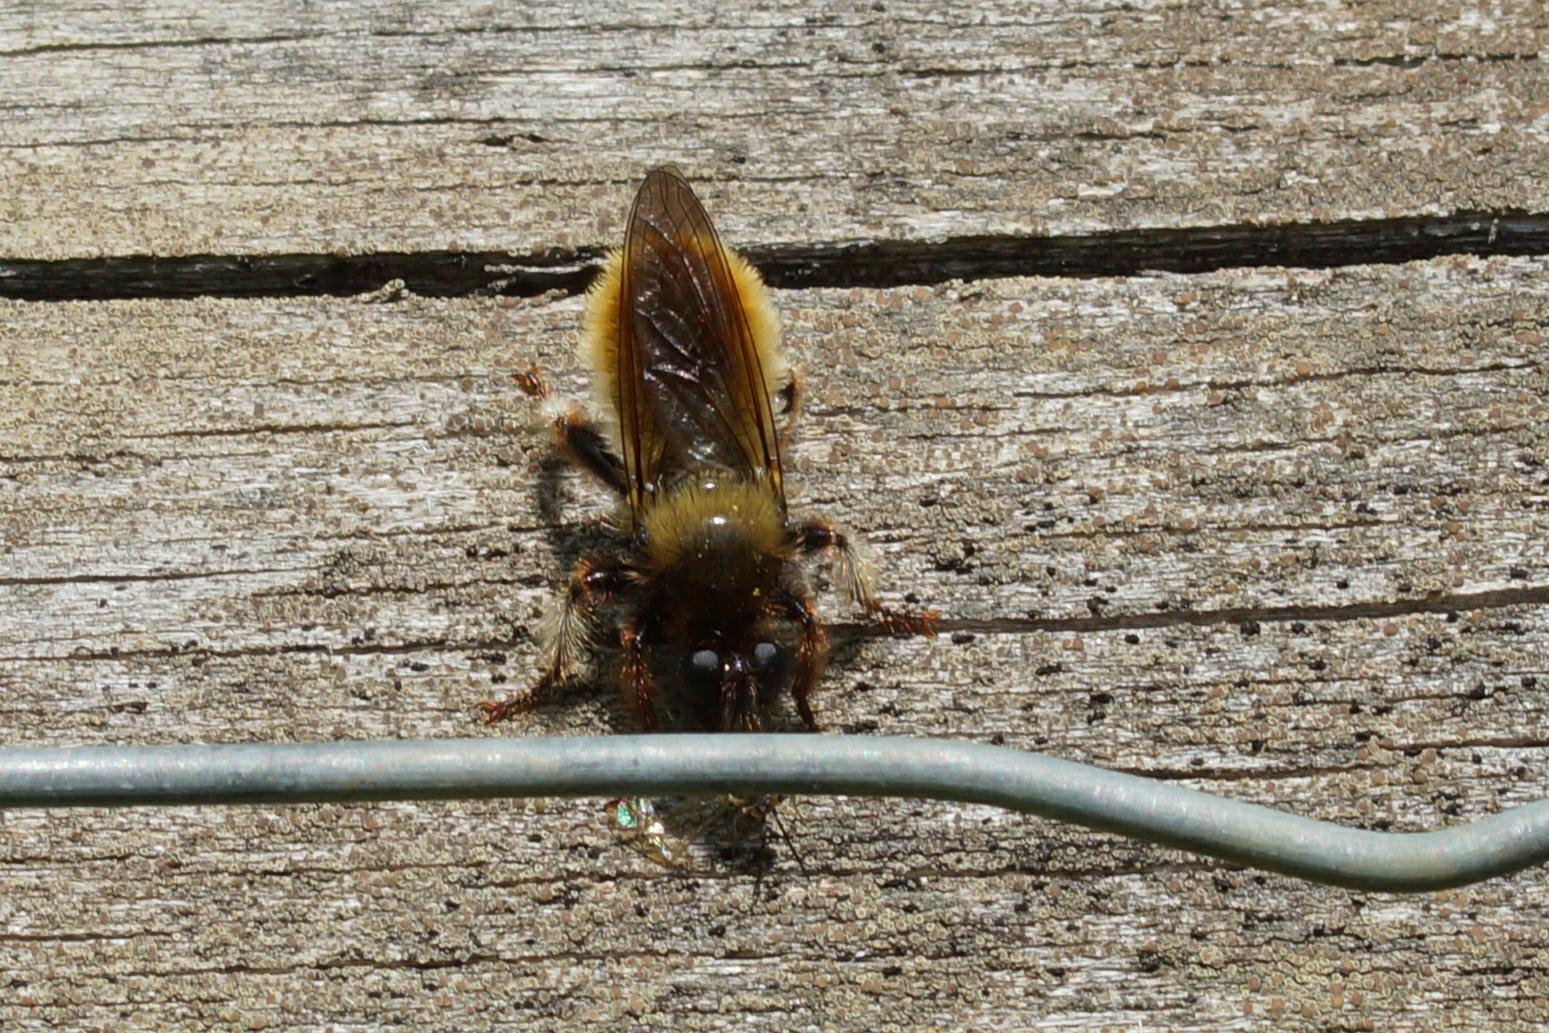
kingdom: Animalia
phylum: Arthropoda
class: Insecta
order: Diptera
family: Asilidae
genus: Laphria
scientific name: Laphria flava
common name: Gul vedrovflue
